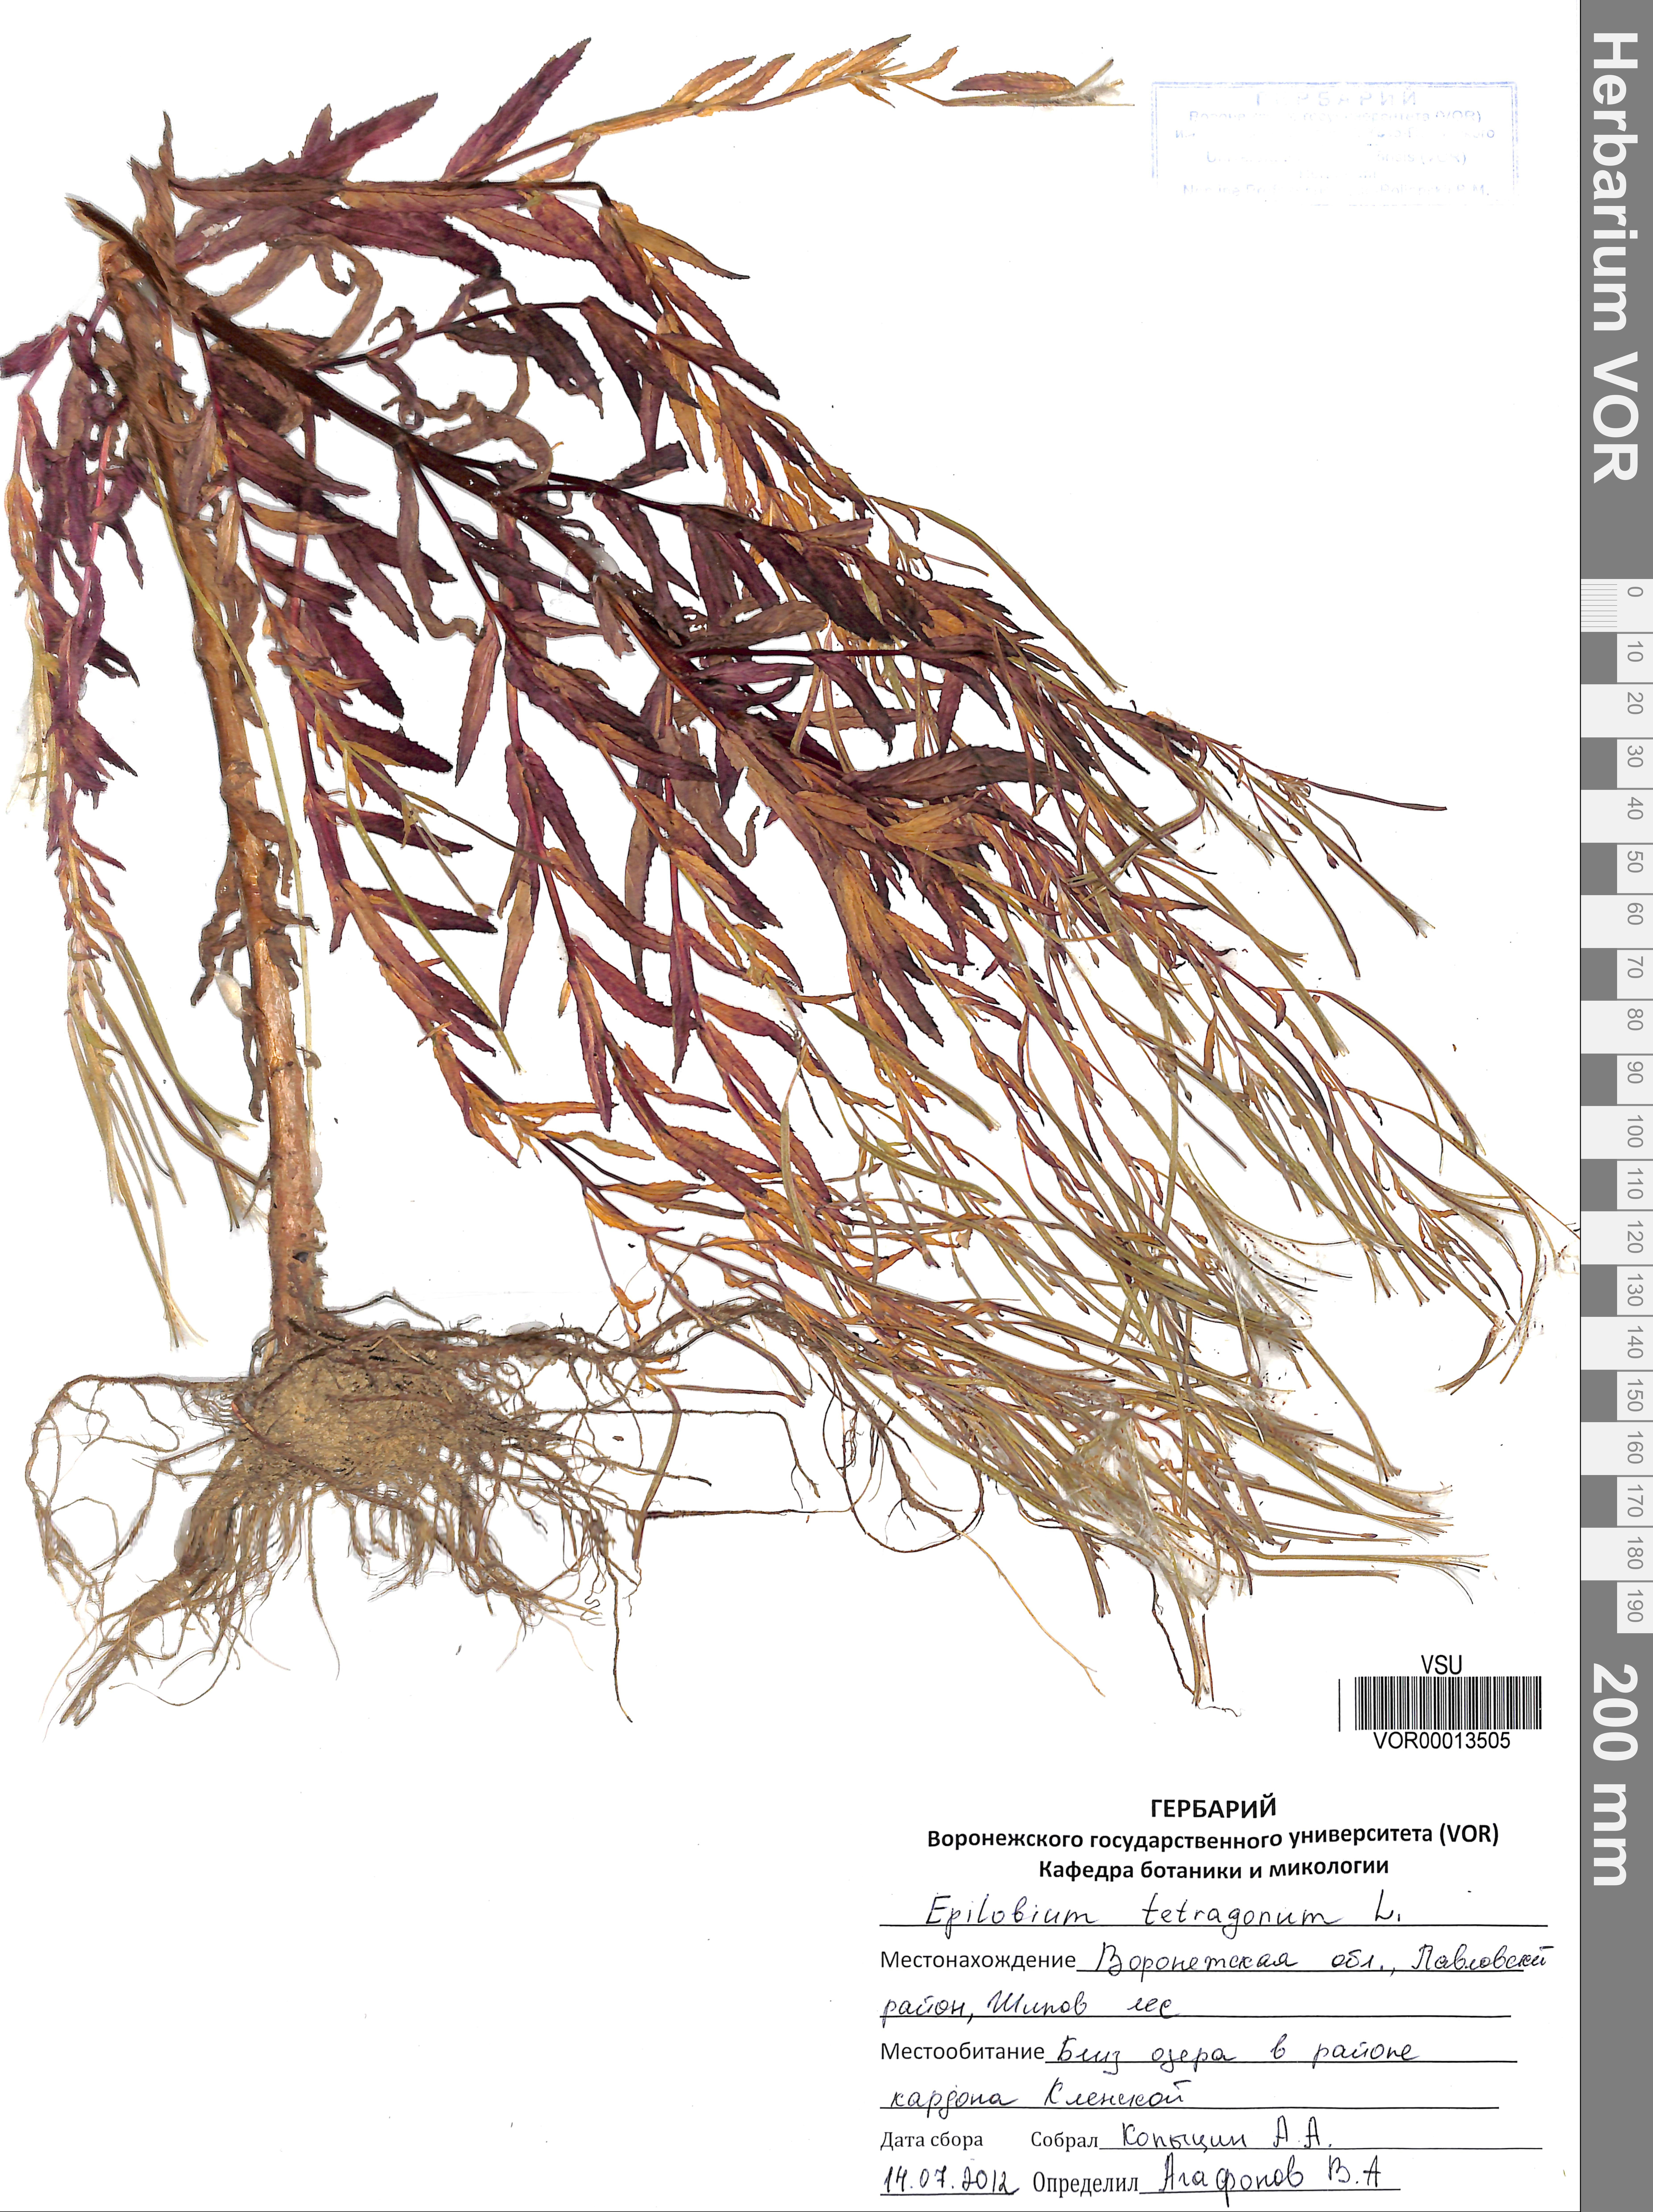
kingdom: Plantae
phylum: Tracheophyta
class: Magnoliopsida
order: Myrtales
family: Onagraceae
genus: Epilobium
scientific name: Epilobium tetragonum
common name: Square-stemmed willowherb
